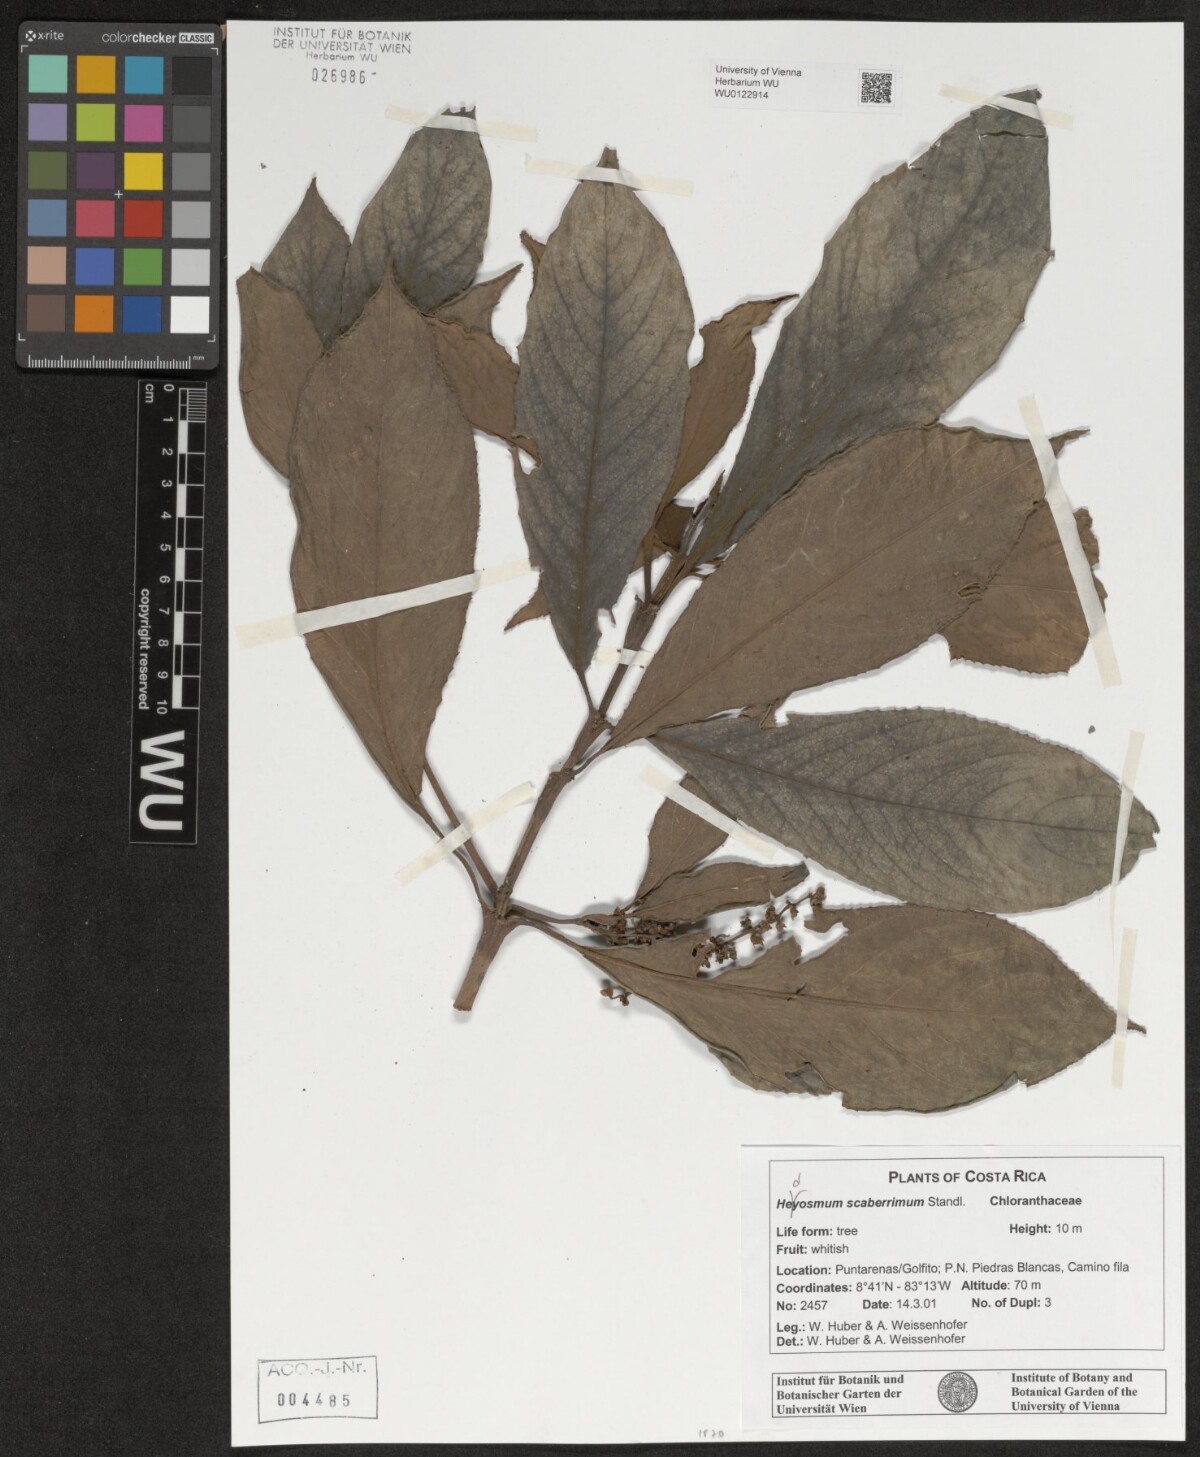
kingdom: Plantae
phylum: Tracheophyta
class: Magnoliopsida
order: Chloranthales
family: Chloranthaceae
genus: Hedyosmum
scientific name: Hedyosmum scaberrimum
